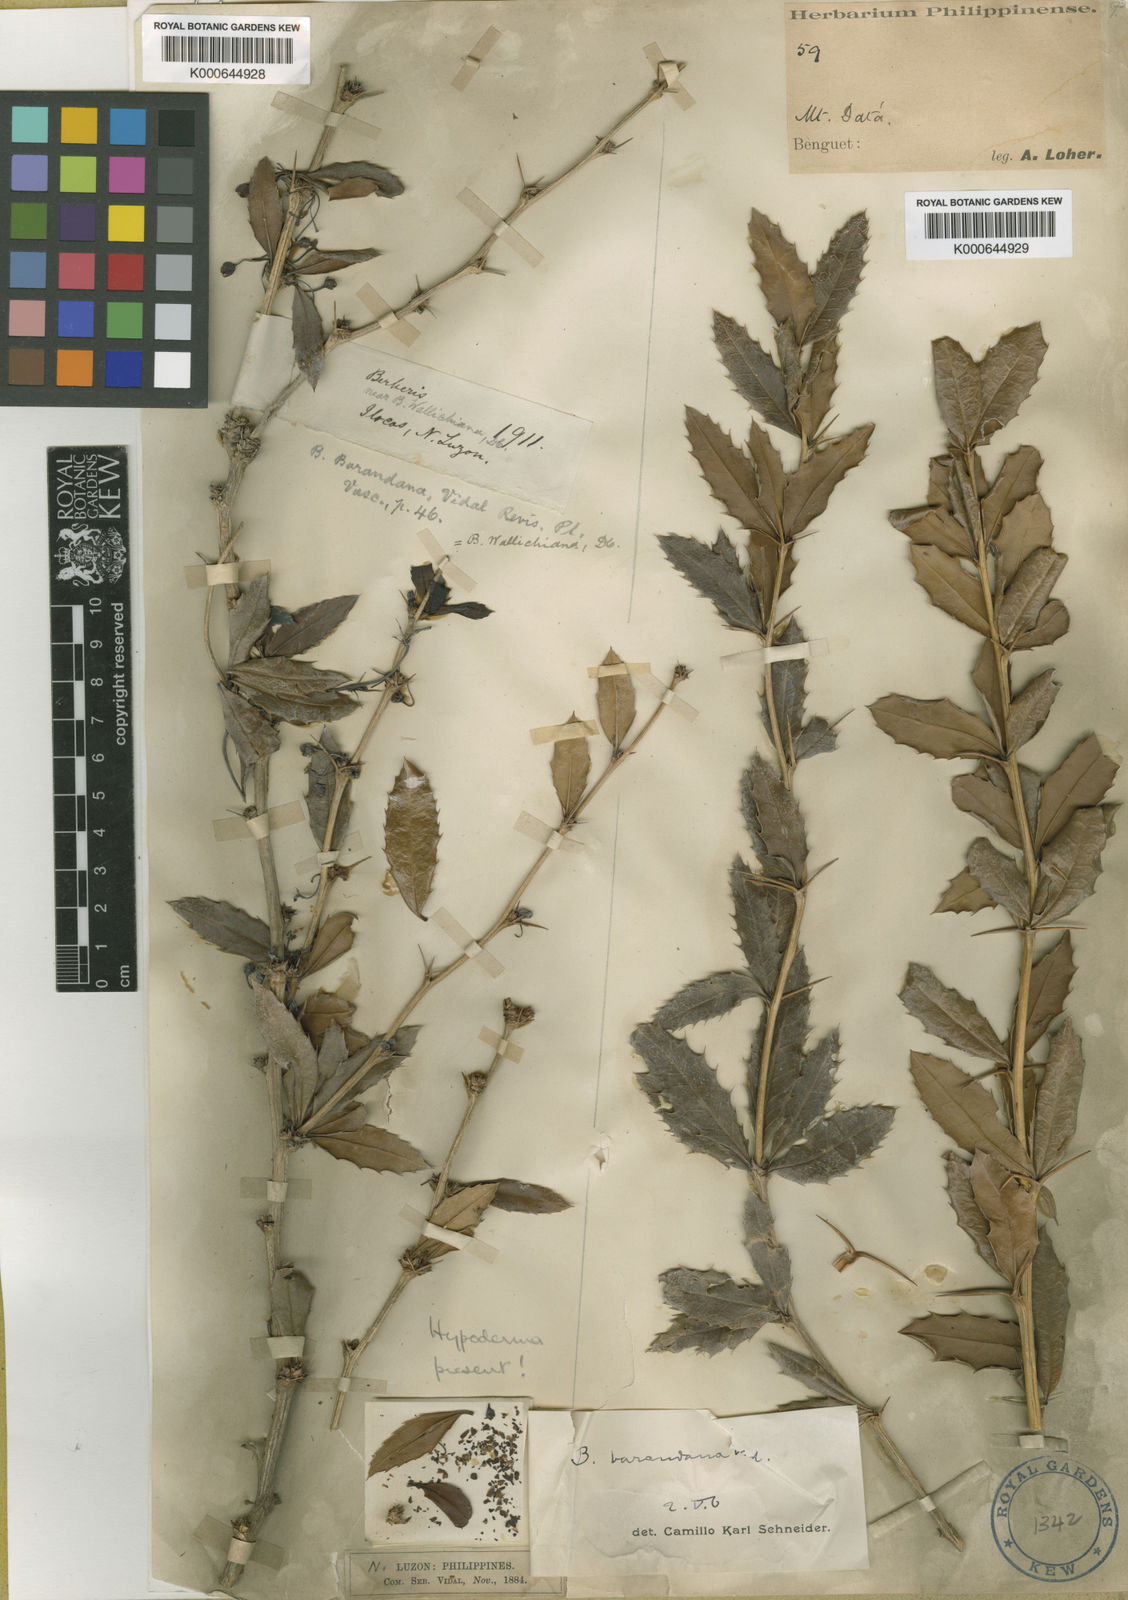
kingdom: Plantae
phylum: Tracheophyta
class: Magnoliopsida
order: Ranunculales
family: Berberidaceae
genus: Berberis
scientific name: Berberis barandana
